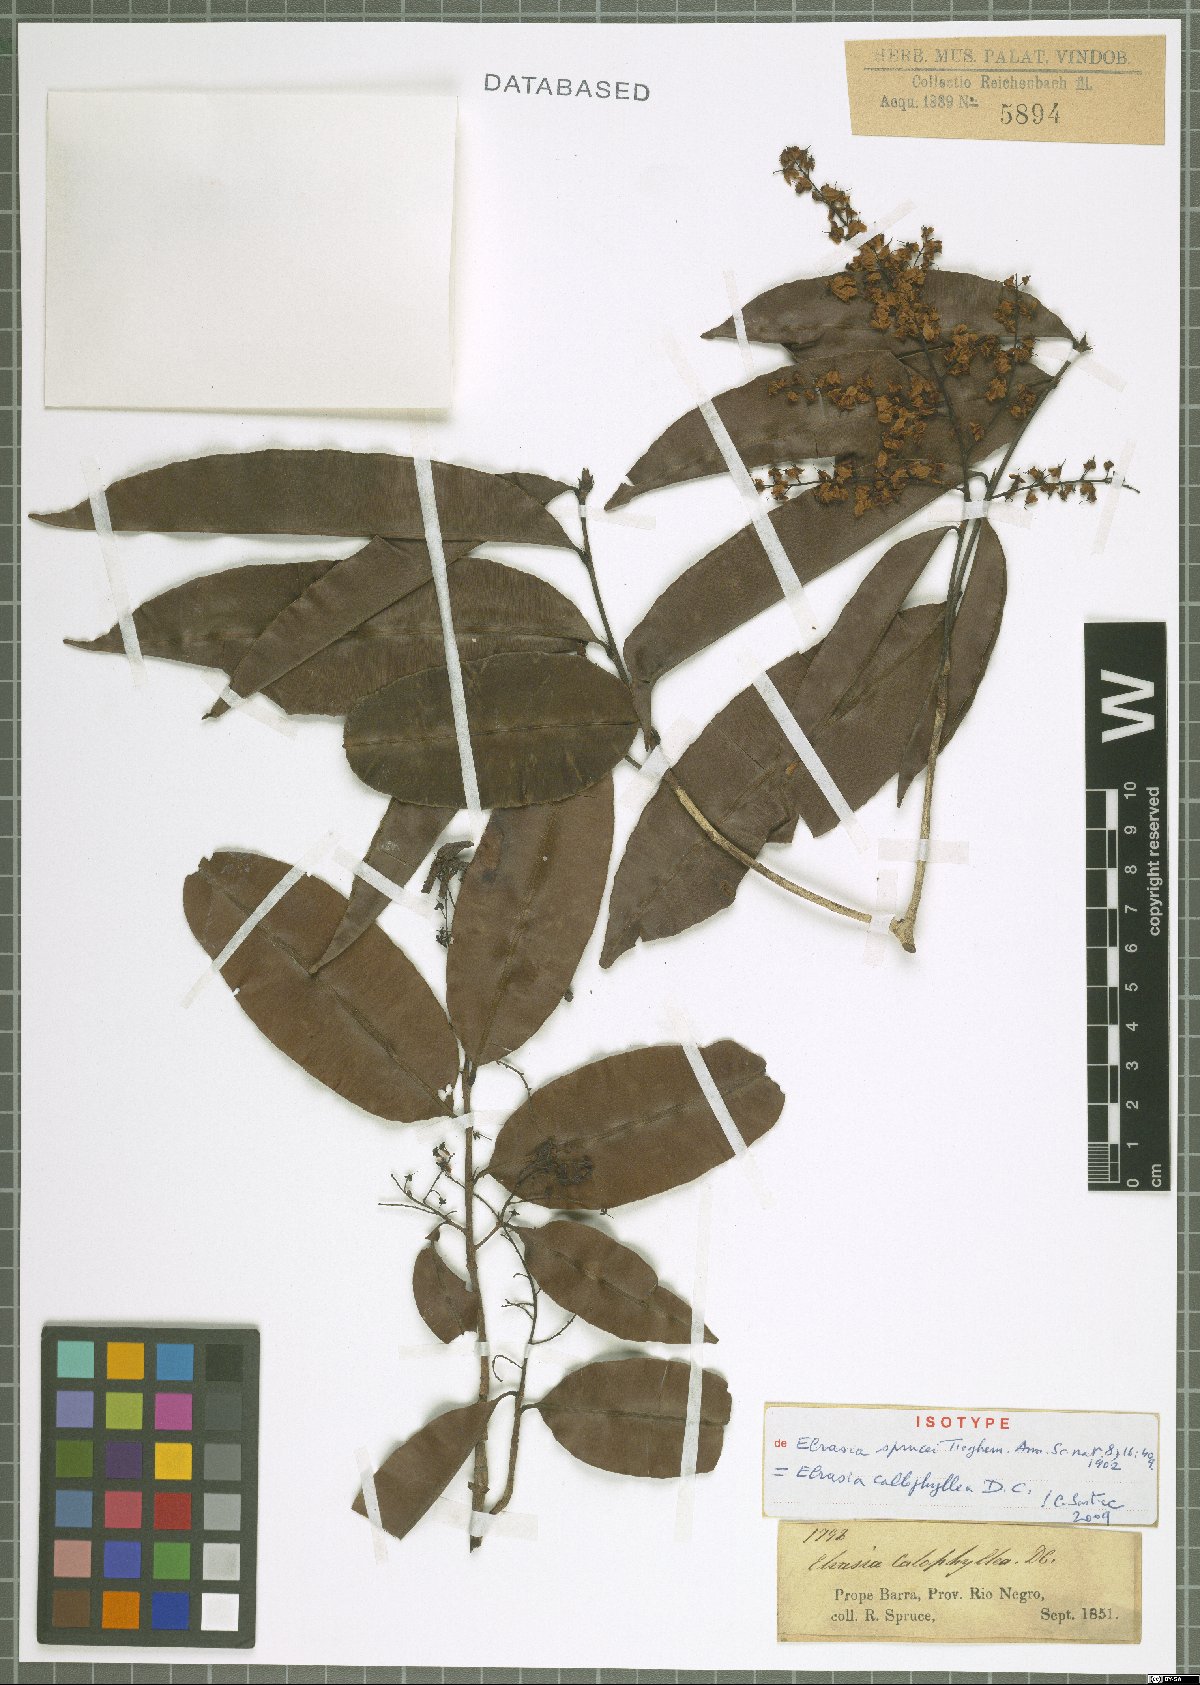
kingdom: Plantae
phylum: Tracheophyta
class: Magnoliopsida
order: Malpighiales
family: Ochnaceae
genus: Elvasia
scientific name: Elvasia calophyllea
